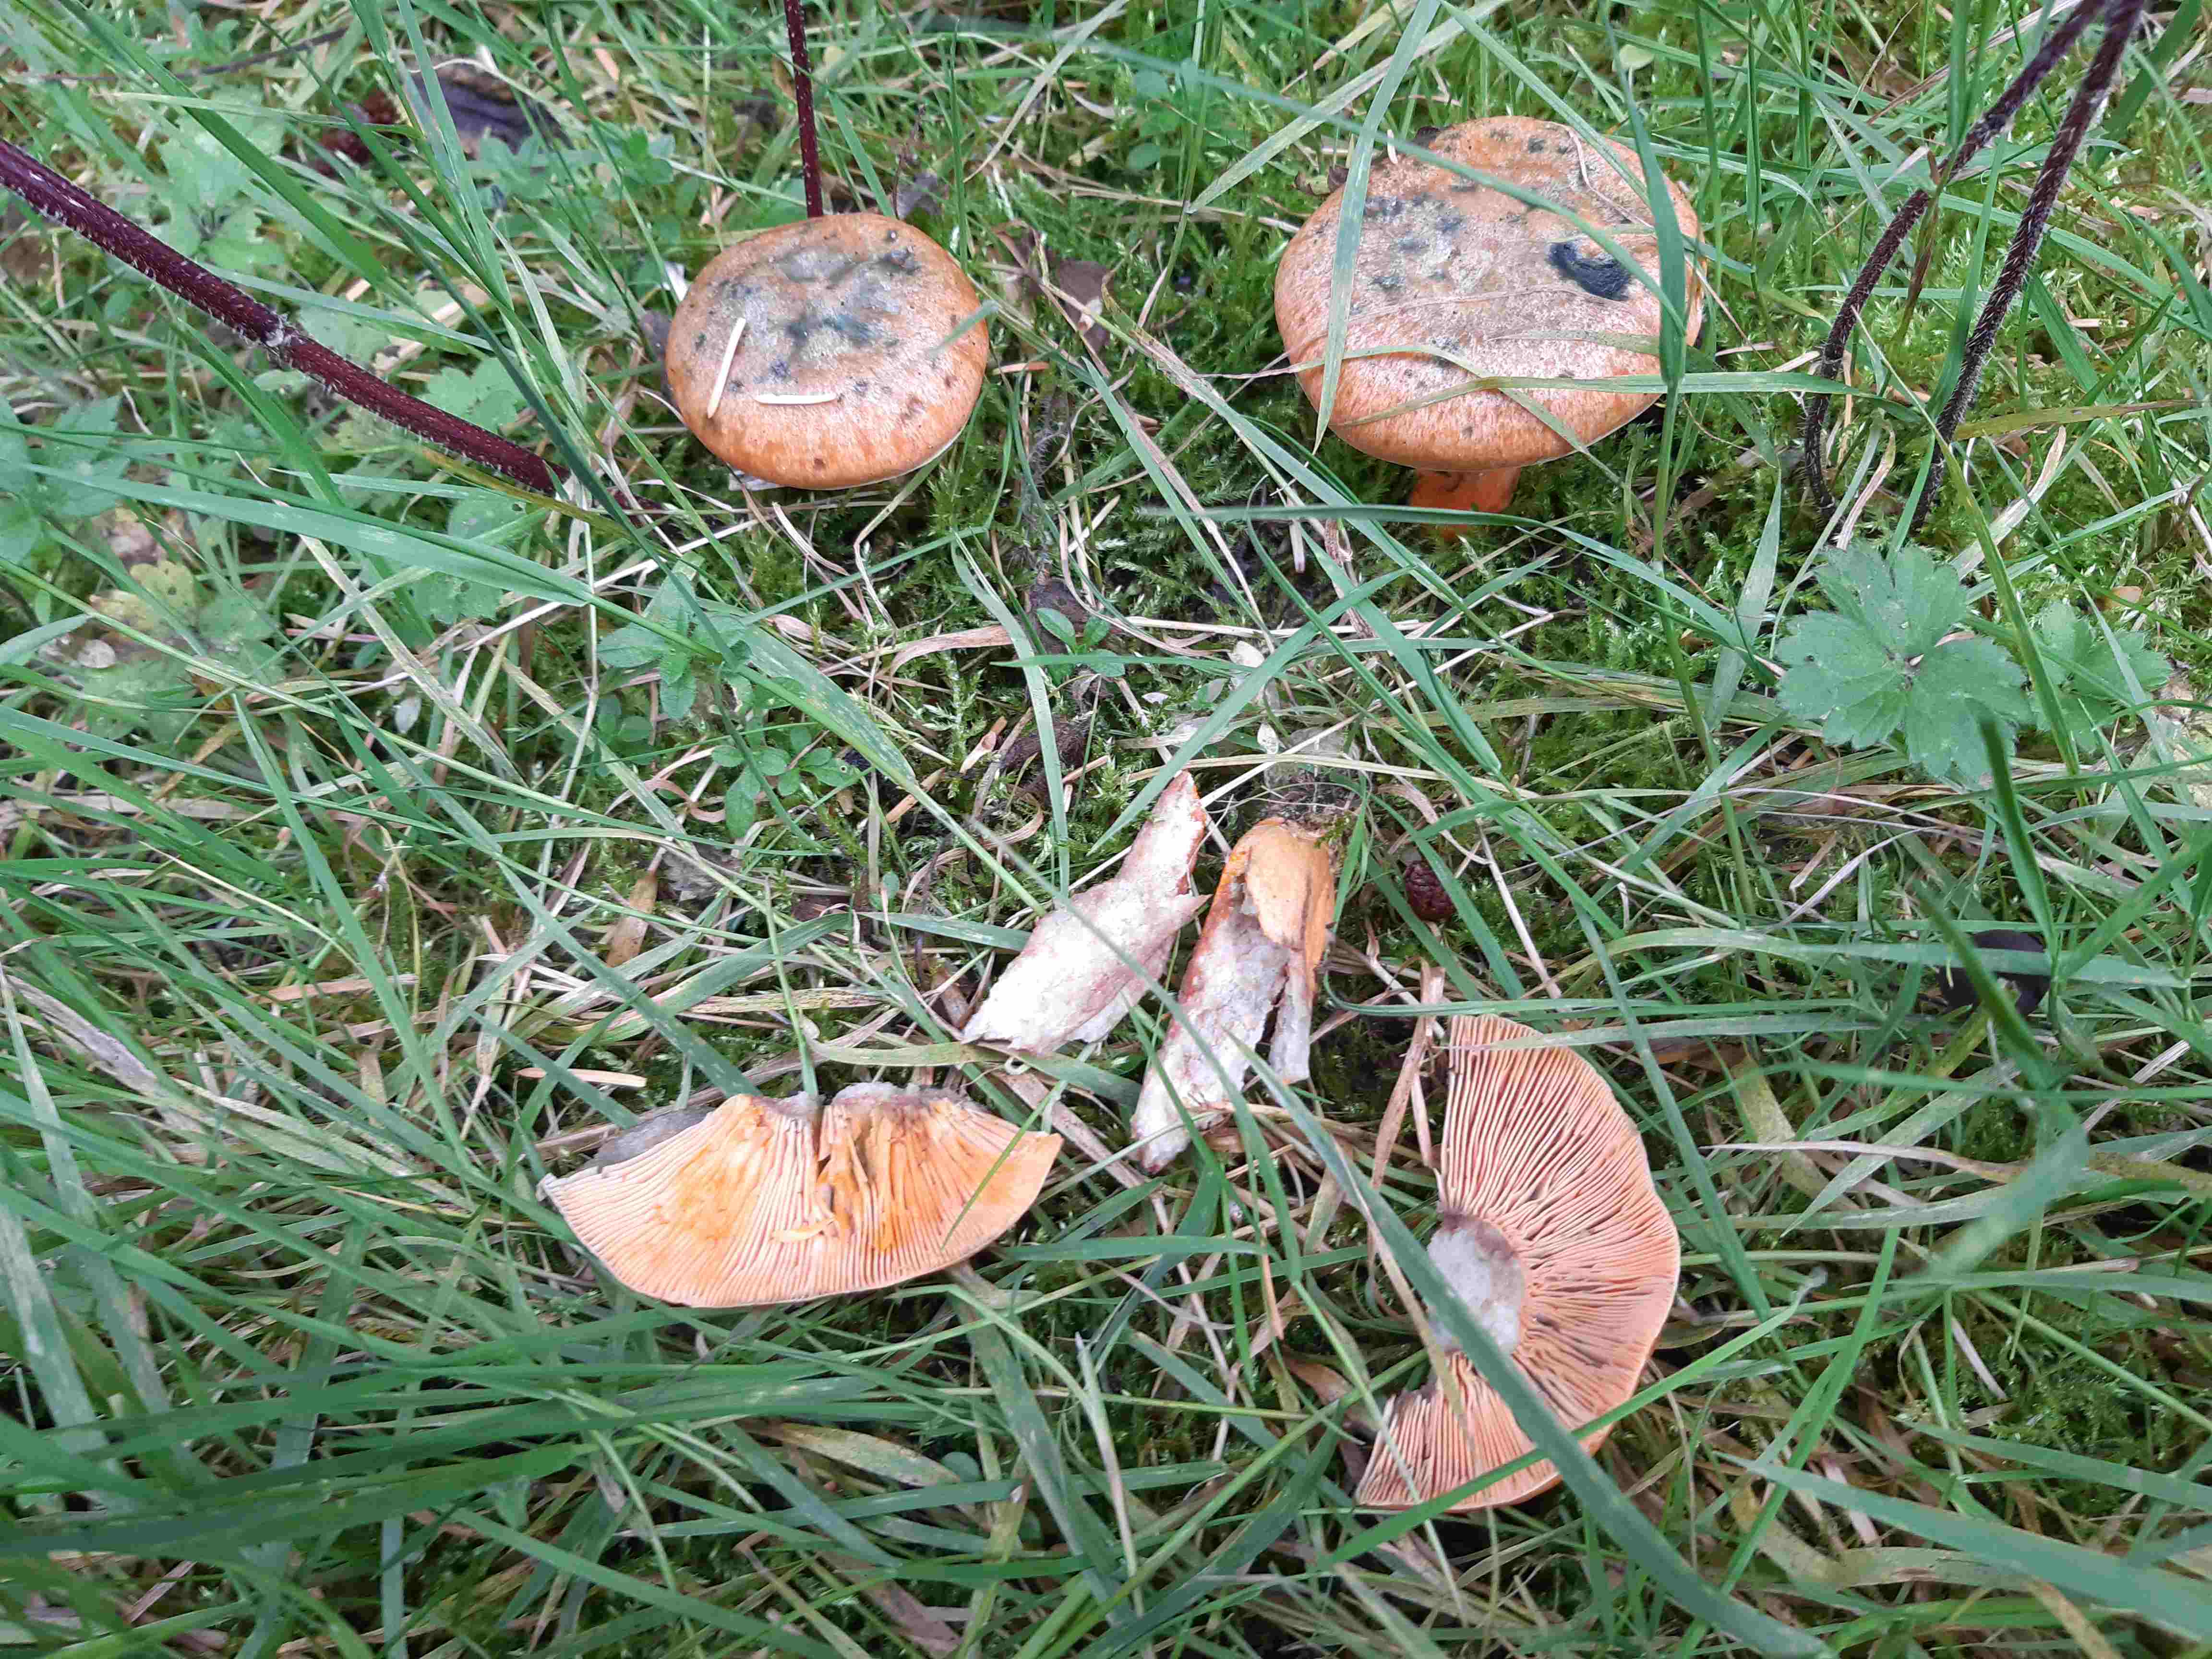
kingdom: Fungi
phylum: Basidiomycota
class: Agaricomycetes
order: Russulales
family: Russulaceae
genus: Lactarius
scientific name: Lactarius deterrimus
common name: gran-mælkehat
